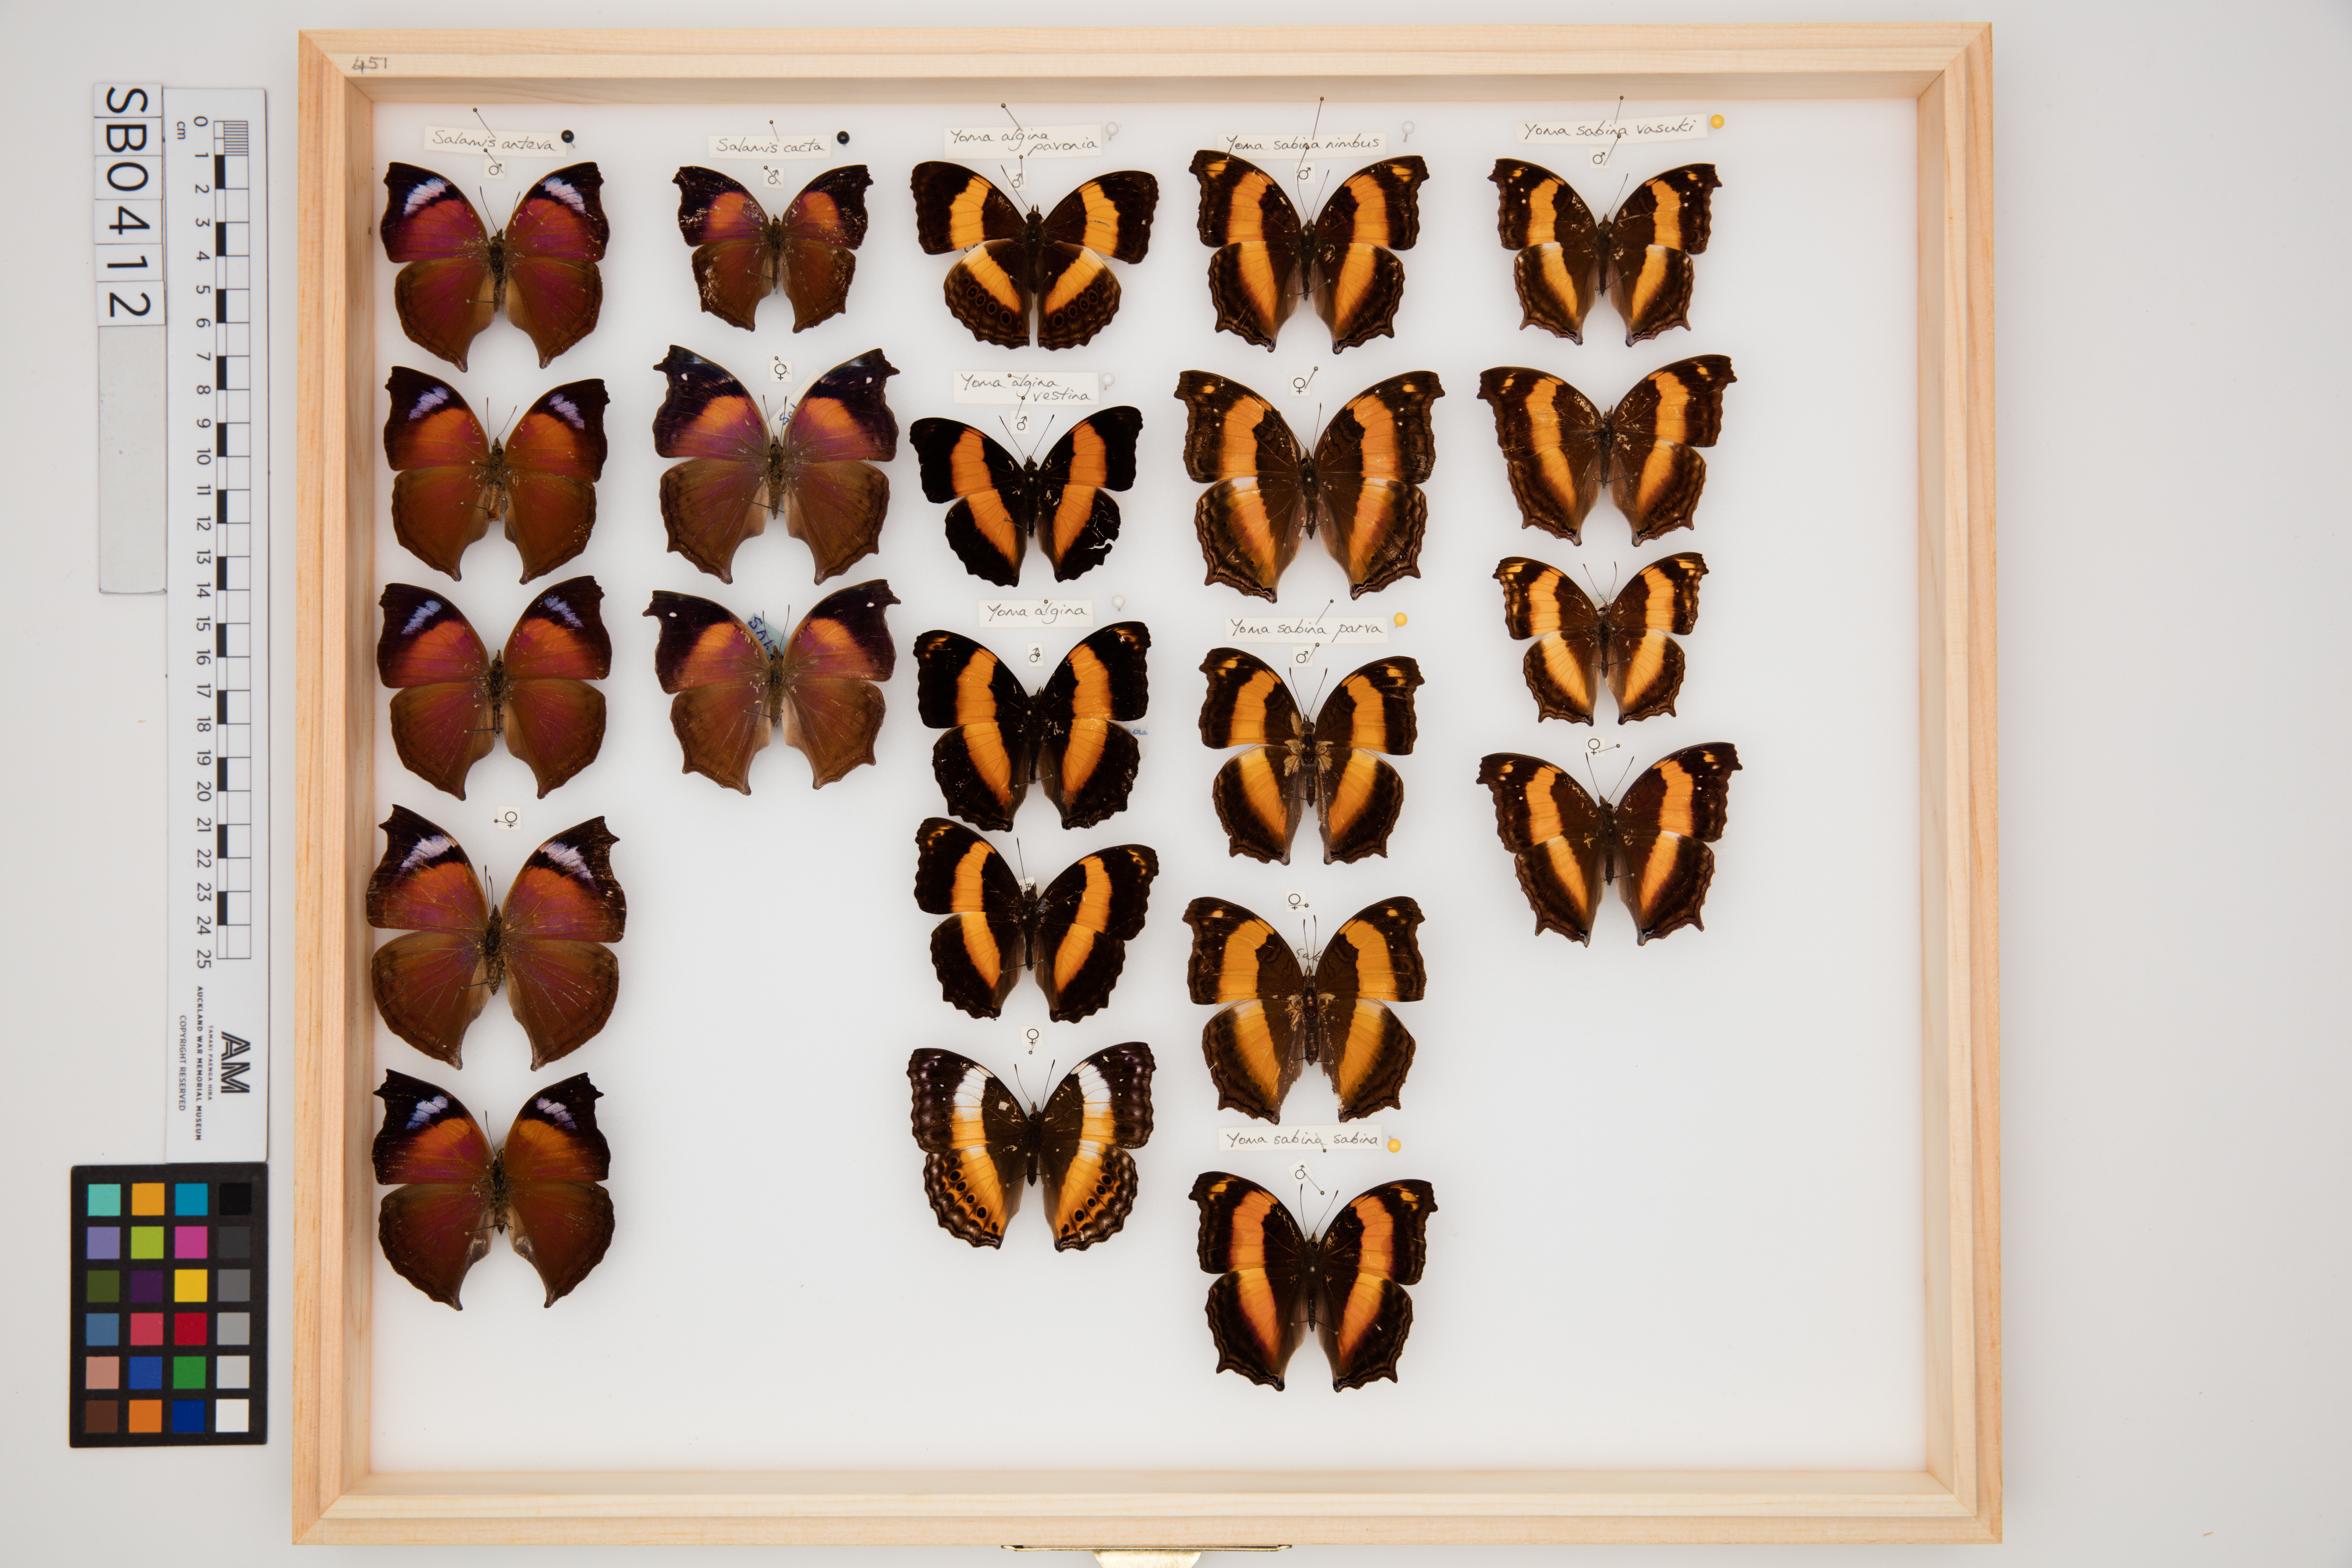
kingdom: Animalia
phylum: Arthropoda
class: Insecta
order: Lepidoptera
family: Nymphalidae
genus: Salamis
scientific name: Salamis cacta
